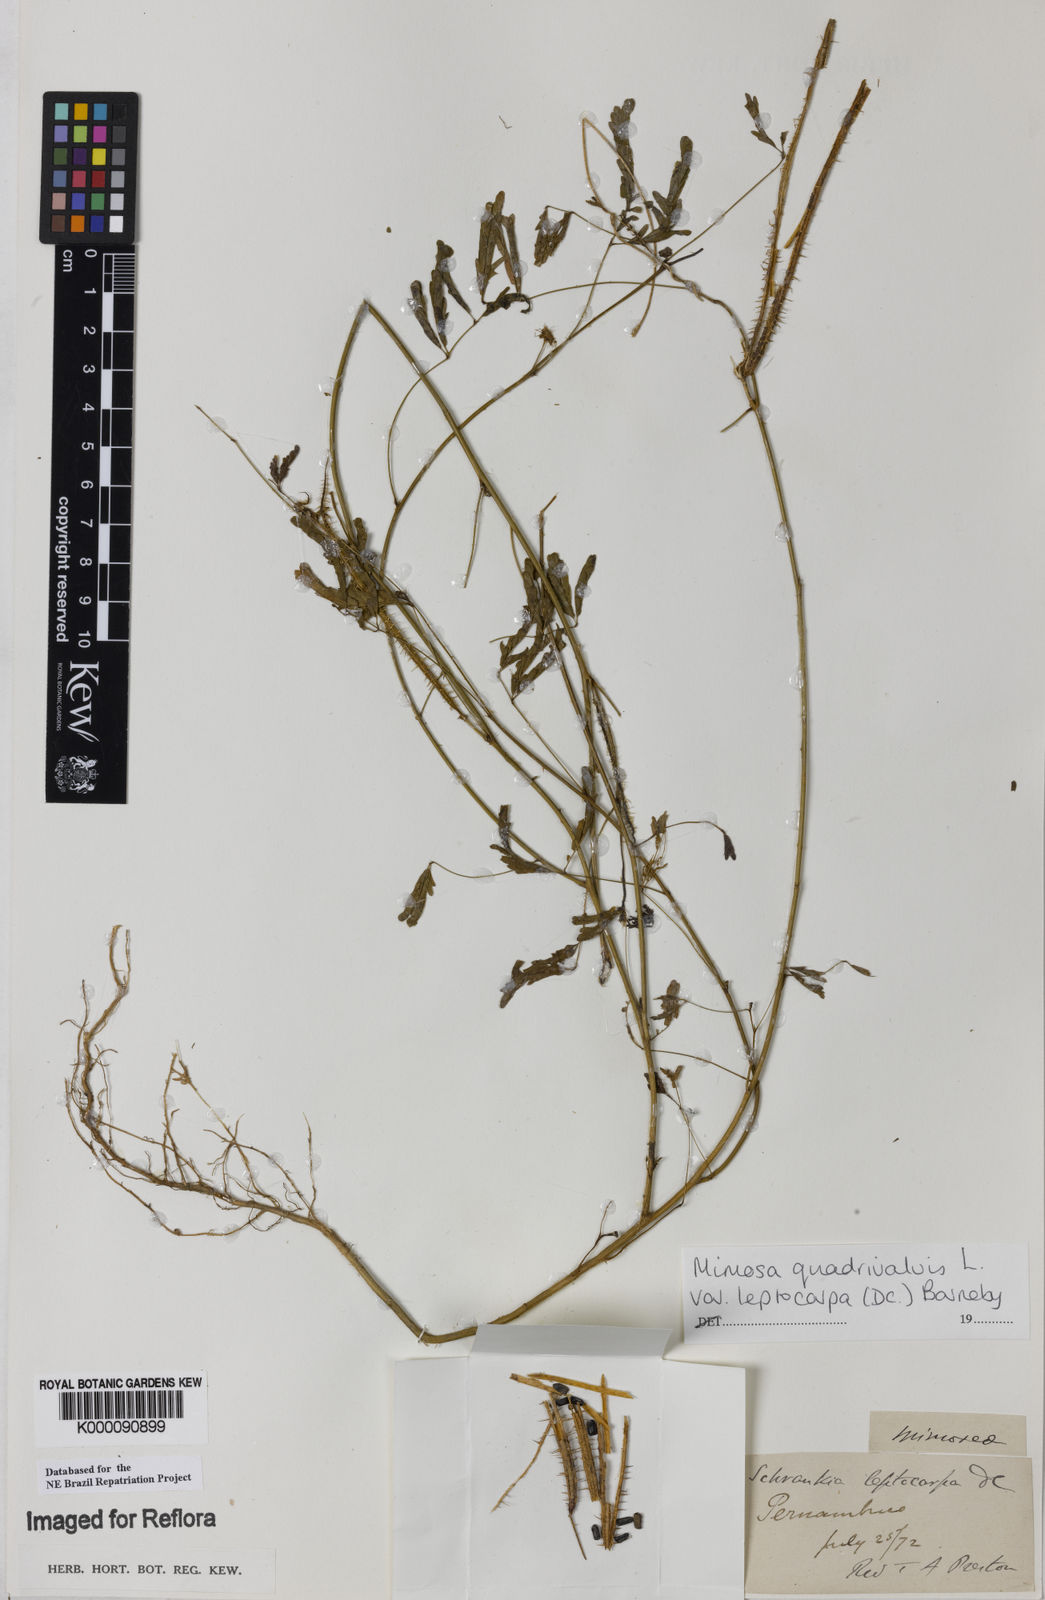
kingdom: Plantae
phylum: Tracheophyta
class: Magnoliopsida
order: Fabales
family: Fabaceae
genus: Mimosa
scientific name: Mimosa candollei
